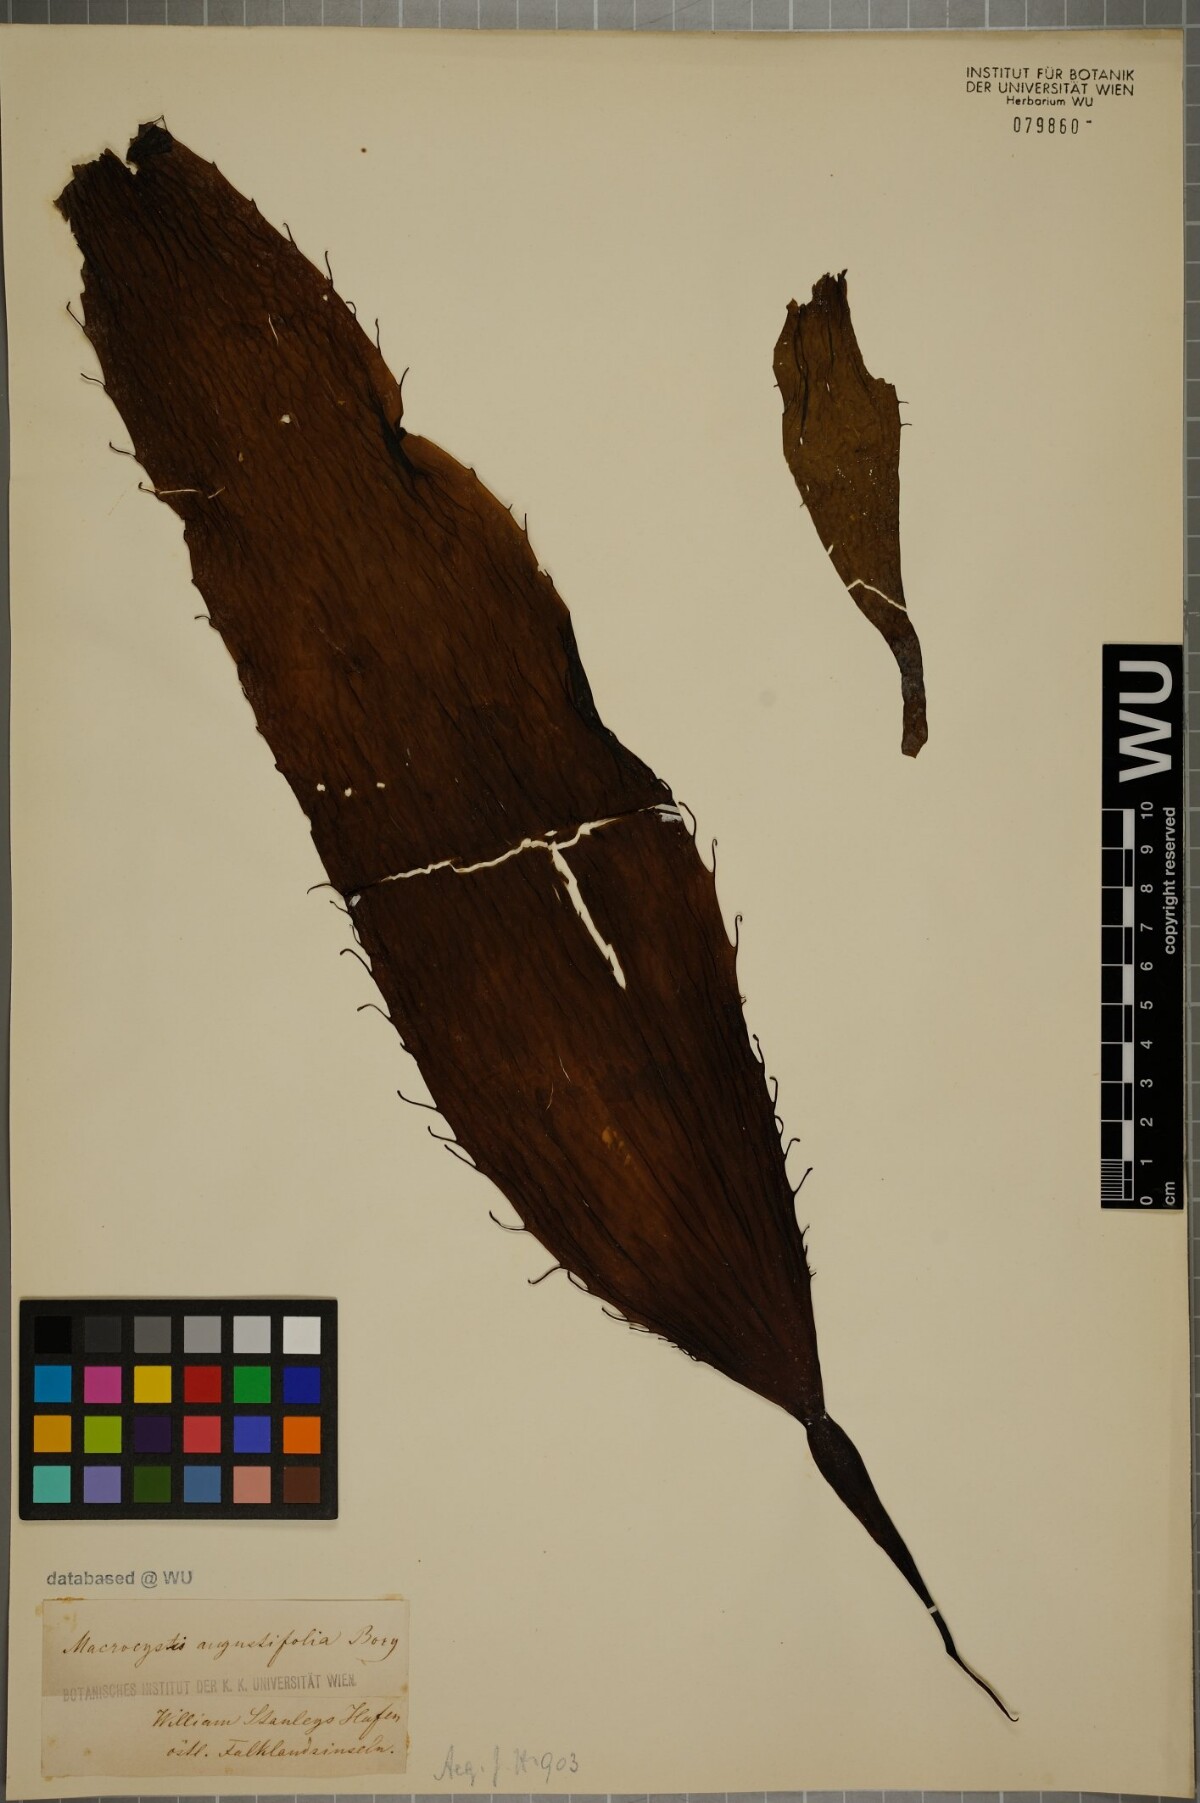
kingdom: Chromista
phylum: Ochrophyta
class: Phaeophyceae
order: Laminariales
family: Laminariaceae
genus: Macrocystis
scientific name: Macrocystis angustifolia
